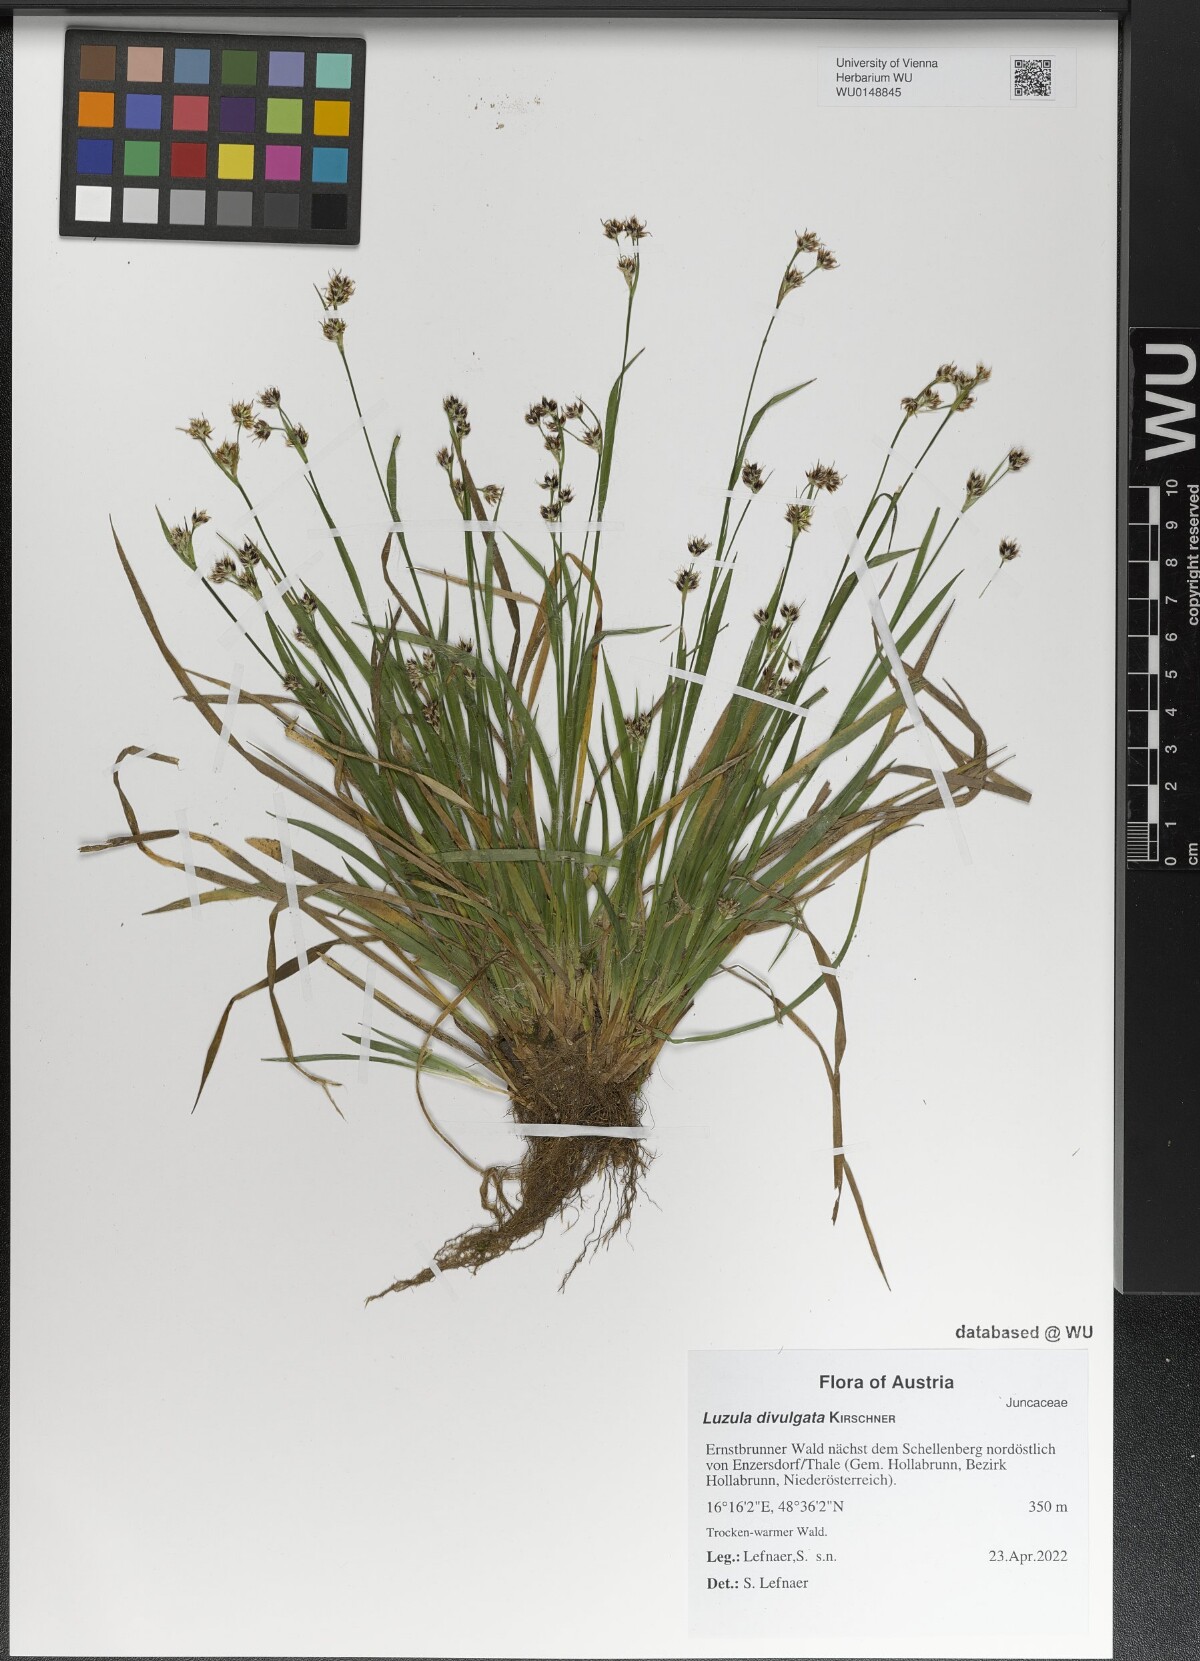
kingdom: Plantae
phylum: Tracheophyta
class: Liliopsida
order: Poales
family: Juncaceae
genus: Luzula
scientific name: Luzula divulgata
